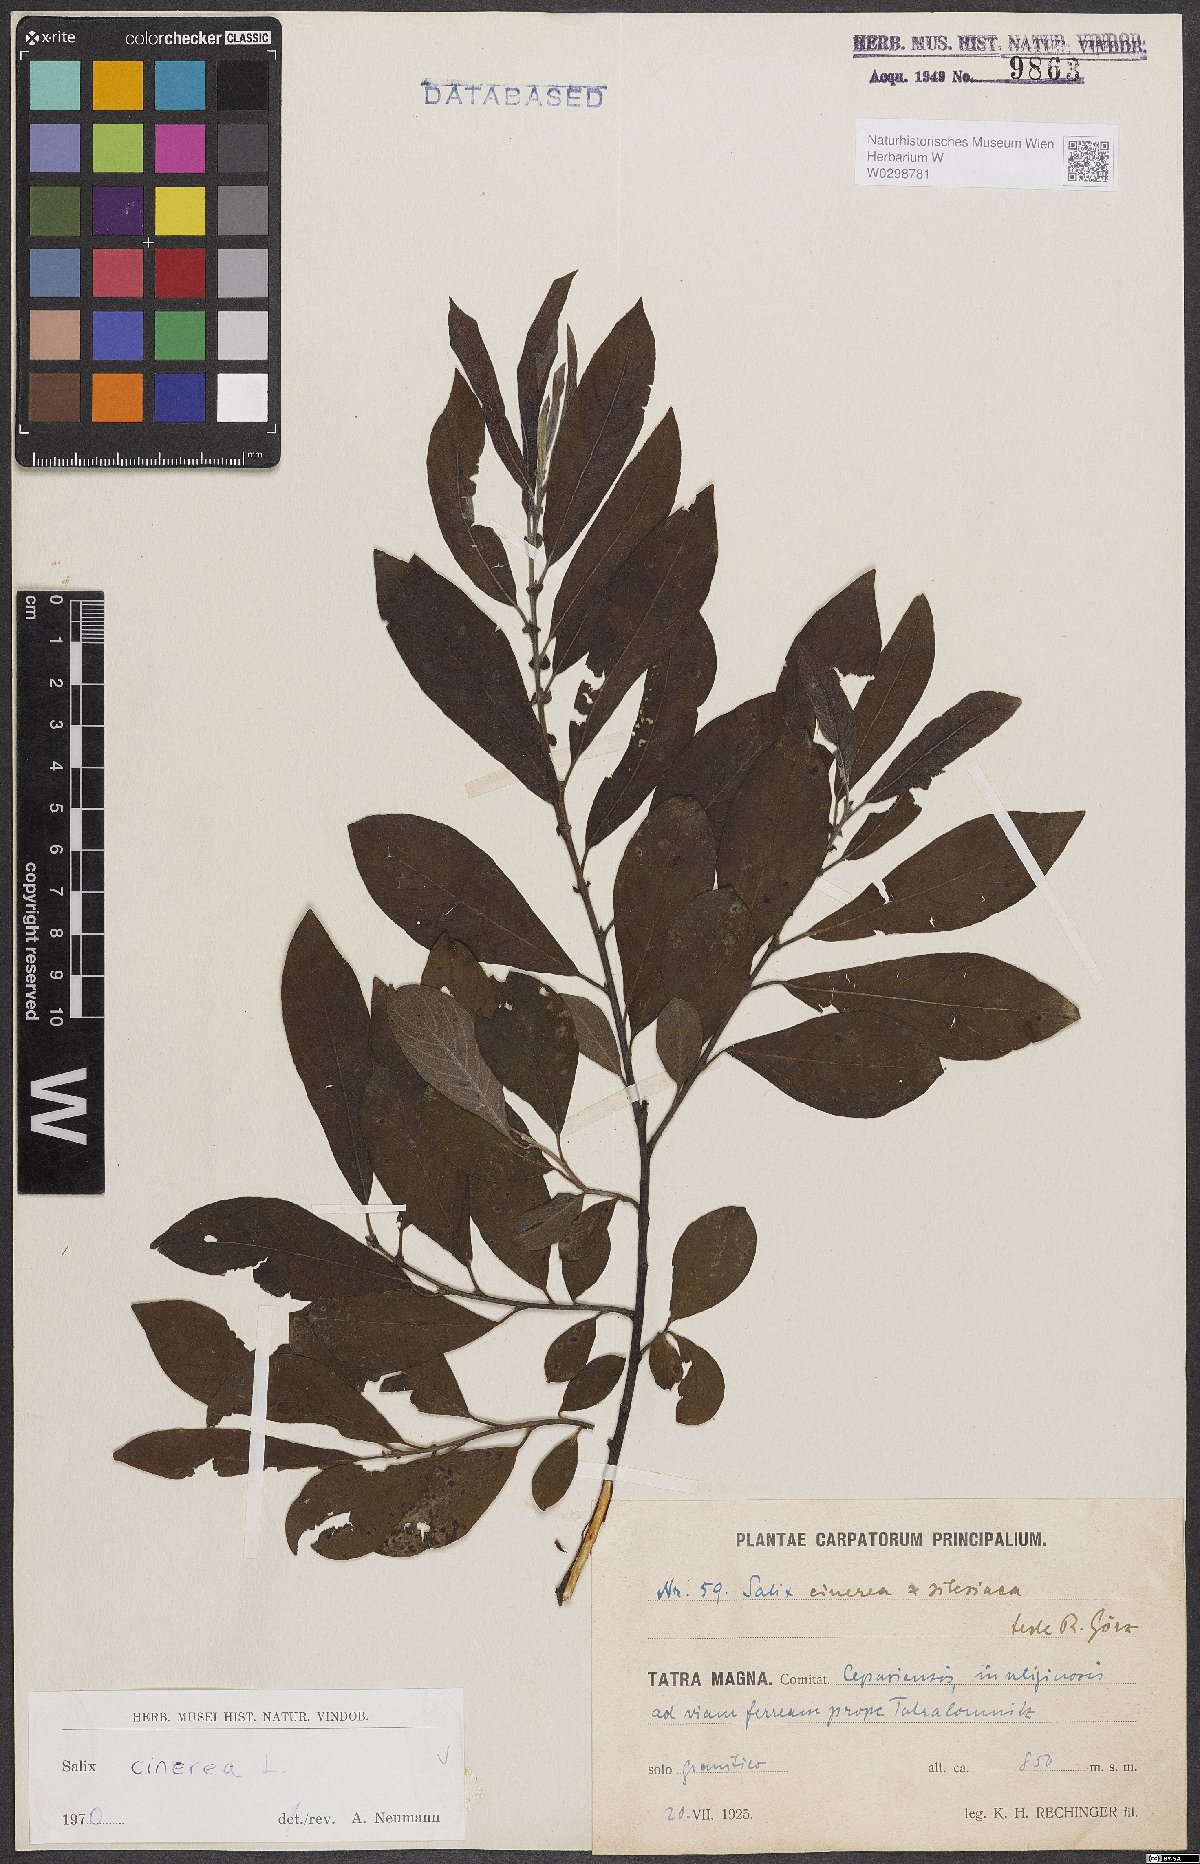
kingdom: Plantae
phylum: Tracheophyta
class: Magnoliopsida
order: Malpighiales
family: Salicaceae
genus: Salix
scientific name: Salix cinerea
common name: Common sallow
